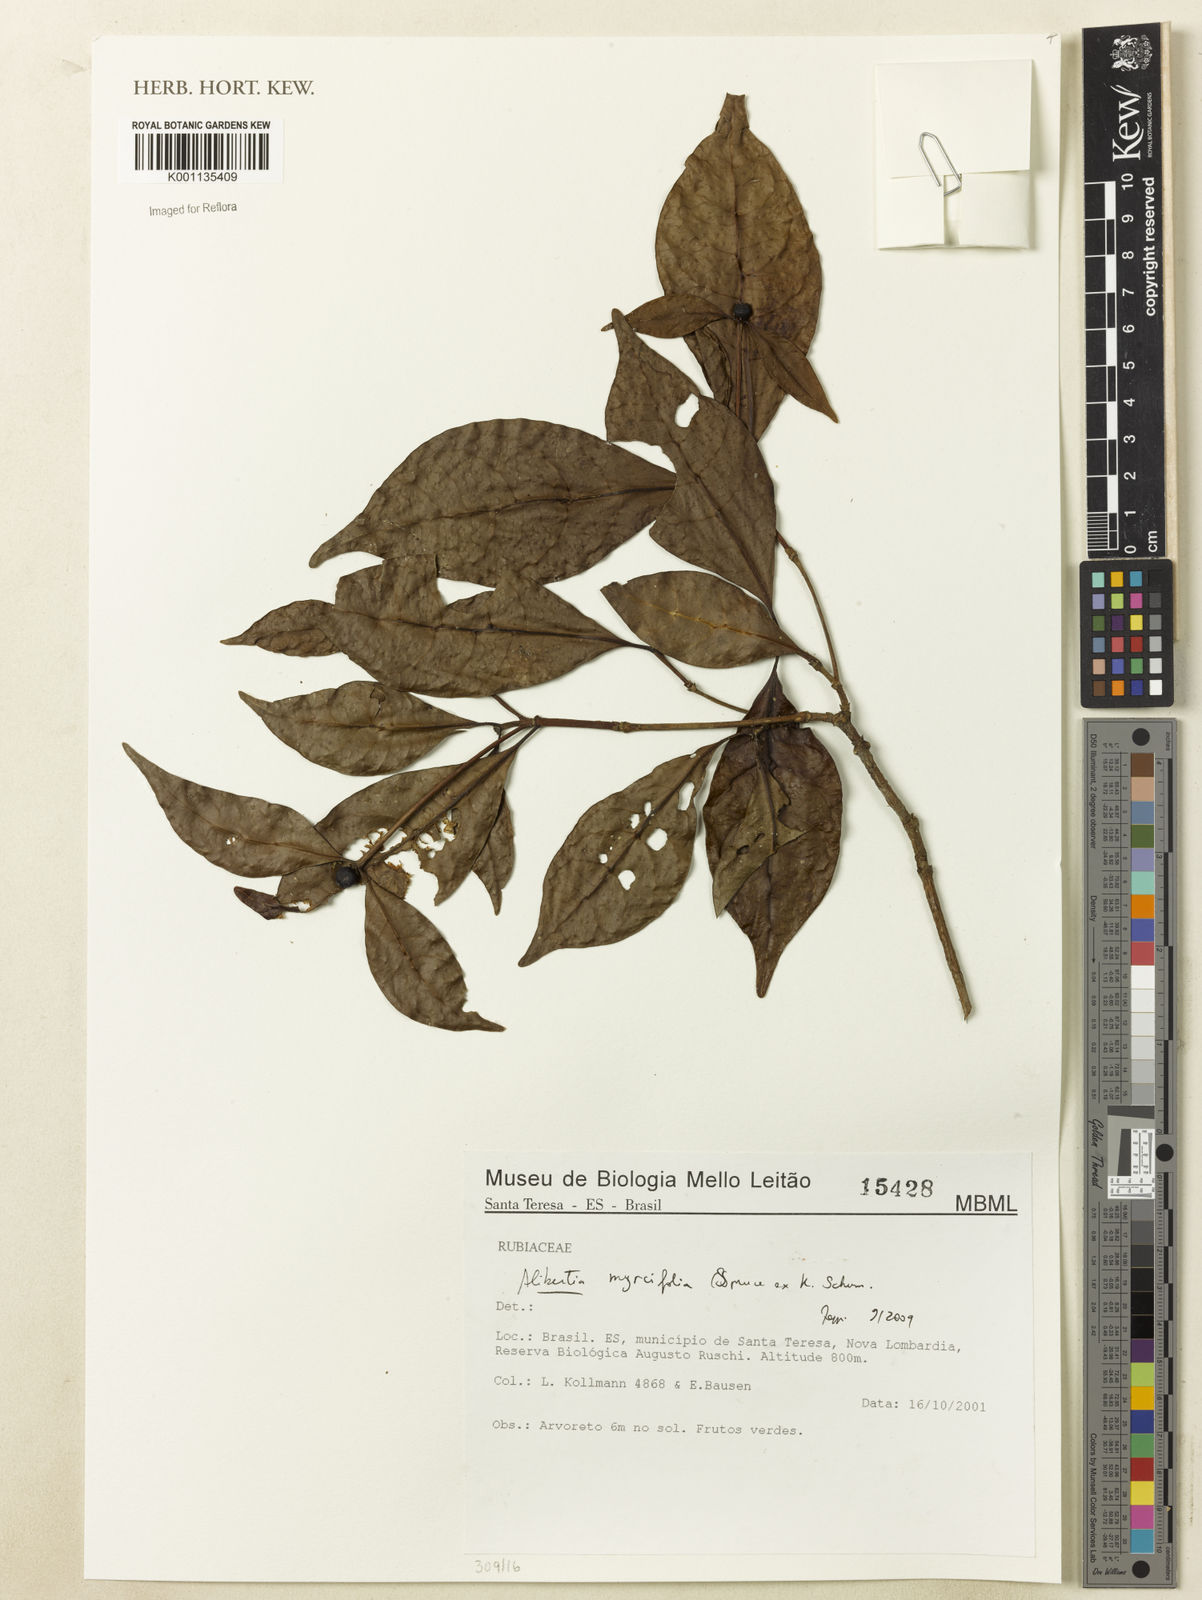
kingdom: Plantae
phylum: Tracheophyta
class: Magnoliopsida
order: Gentianales
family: Rubiaceae
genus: Cordiera
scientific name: Cordiera myrciifolia
